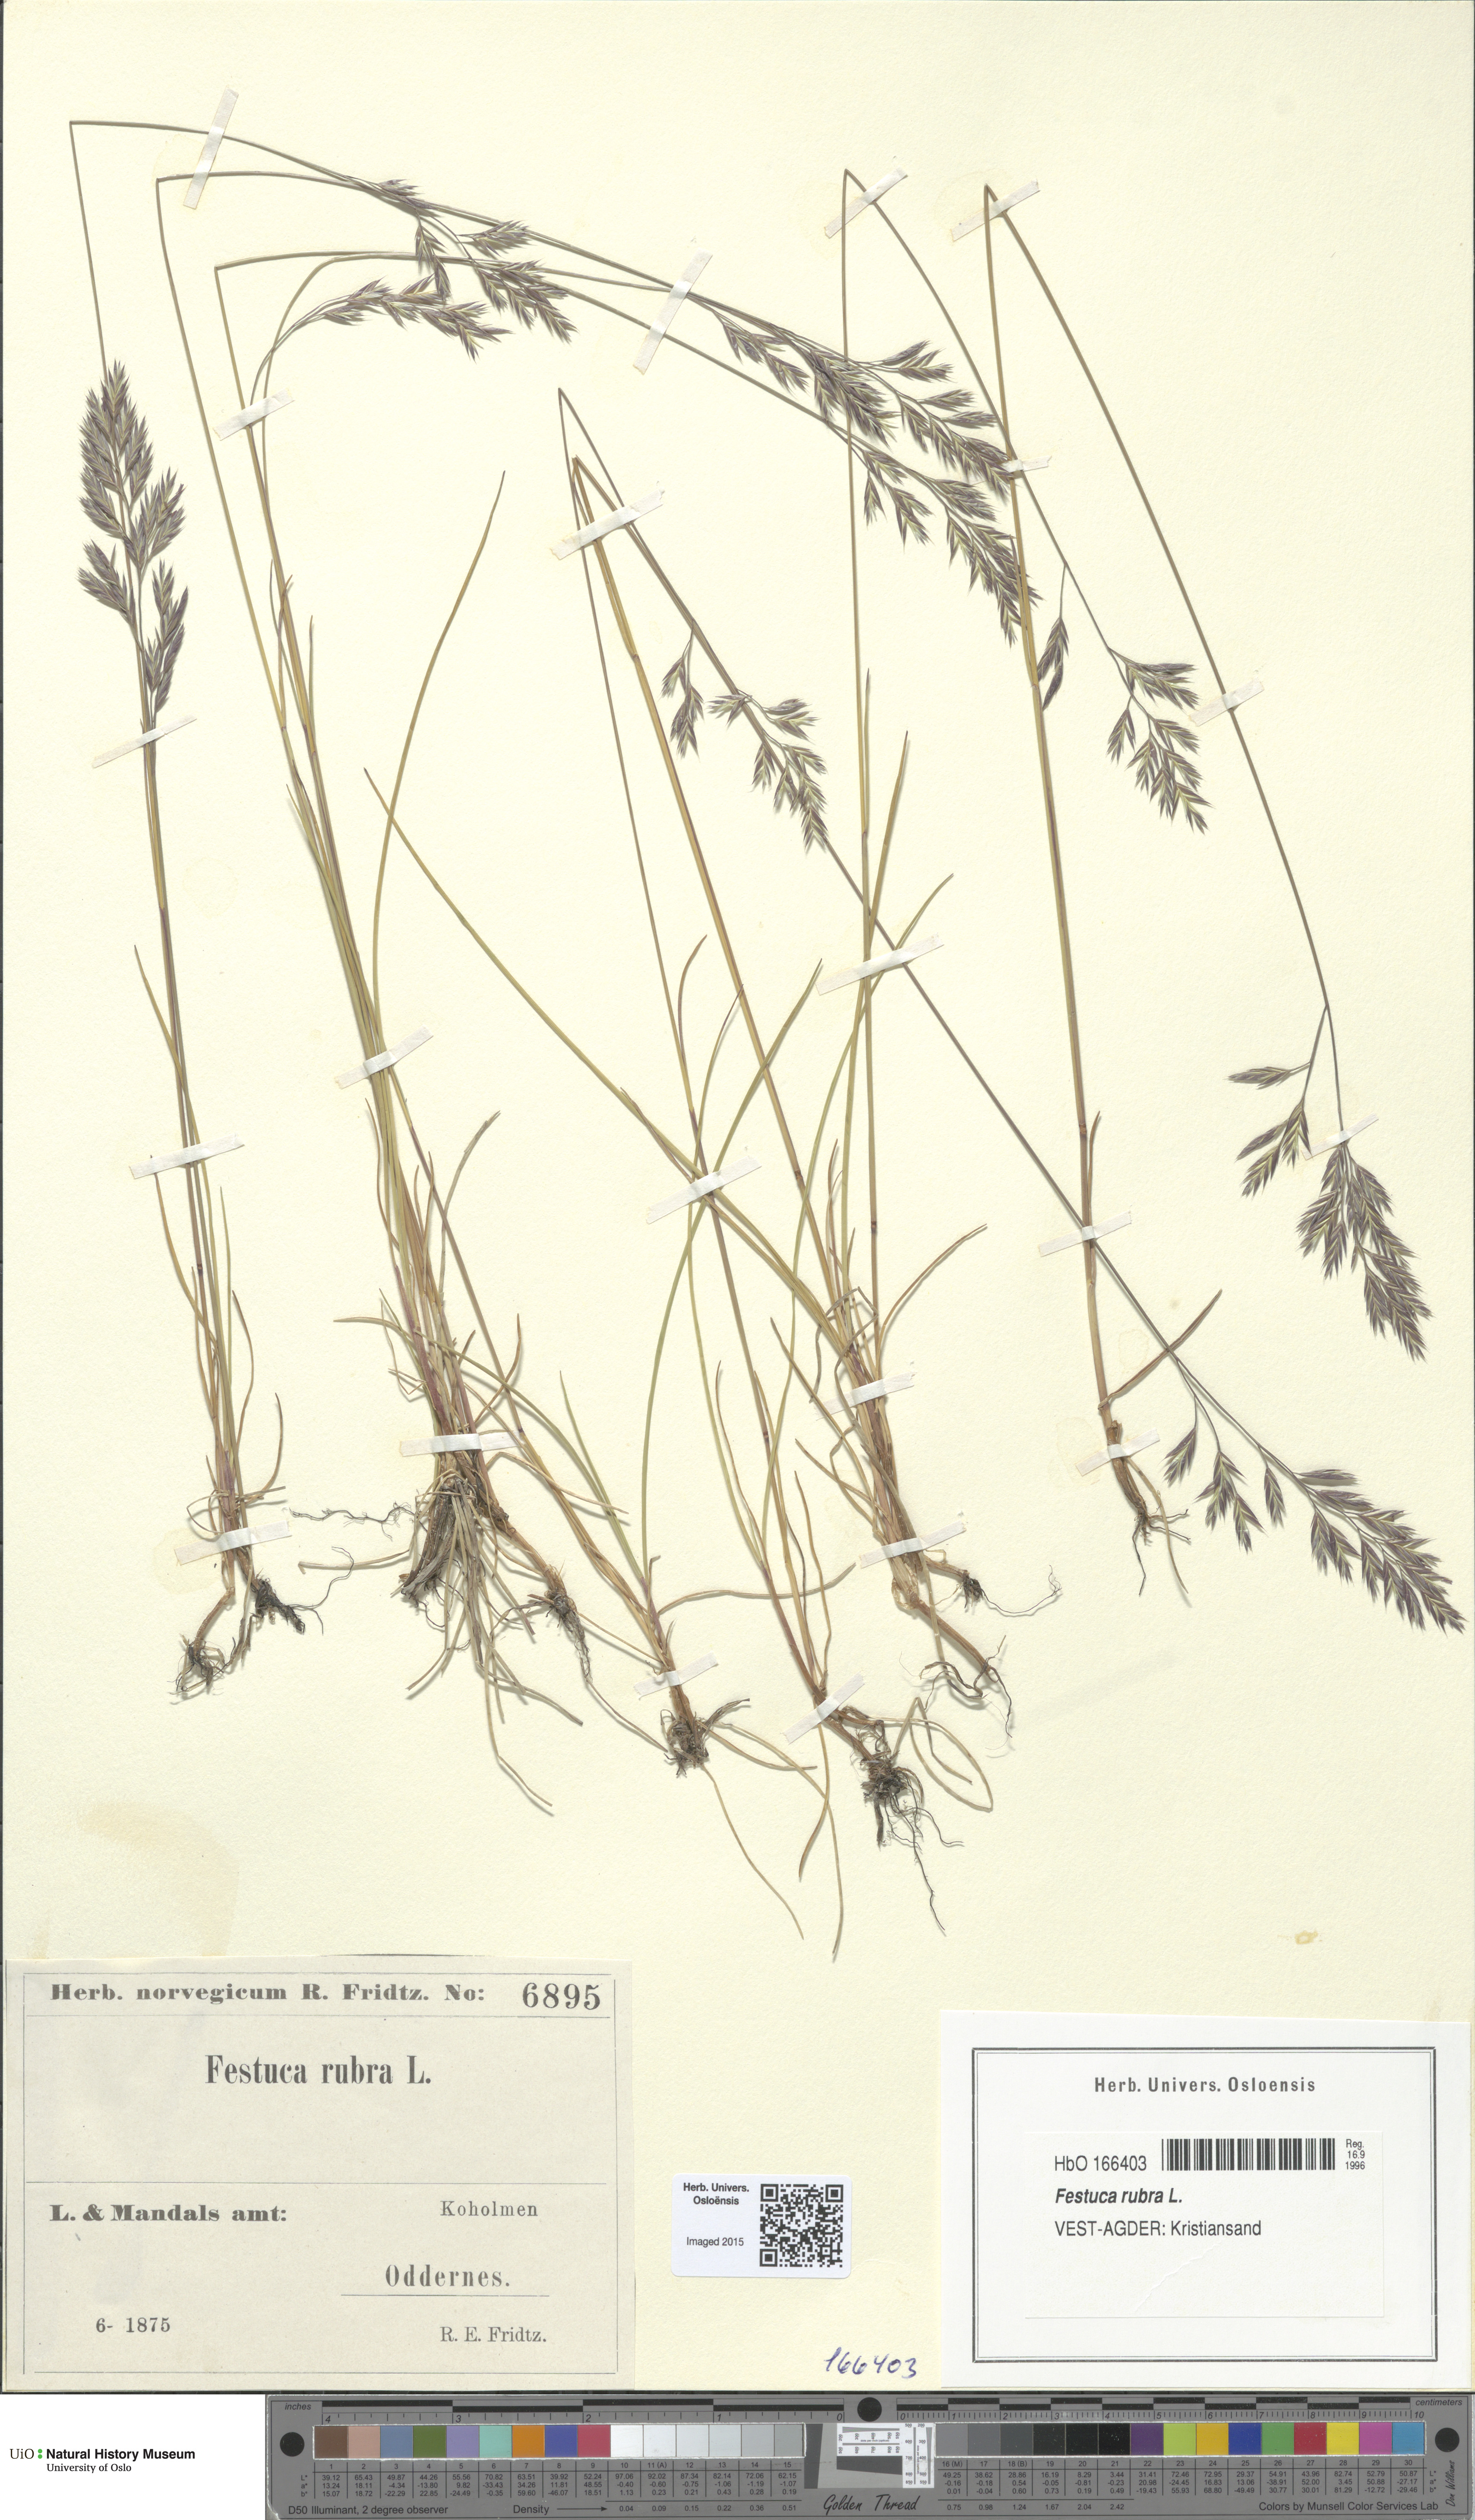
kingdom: Plantae
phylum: Tracheophyta
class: Liliopsida
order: Poales
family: Poaceae
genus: Festuca
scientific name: Festuca rubra
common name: Red fescue
